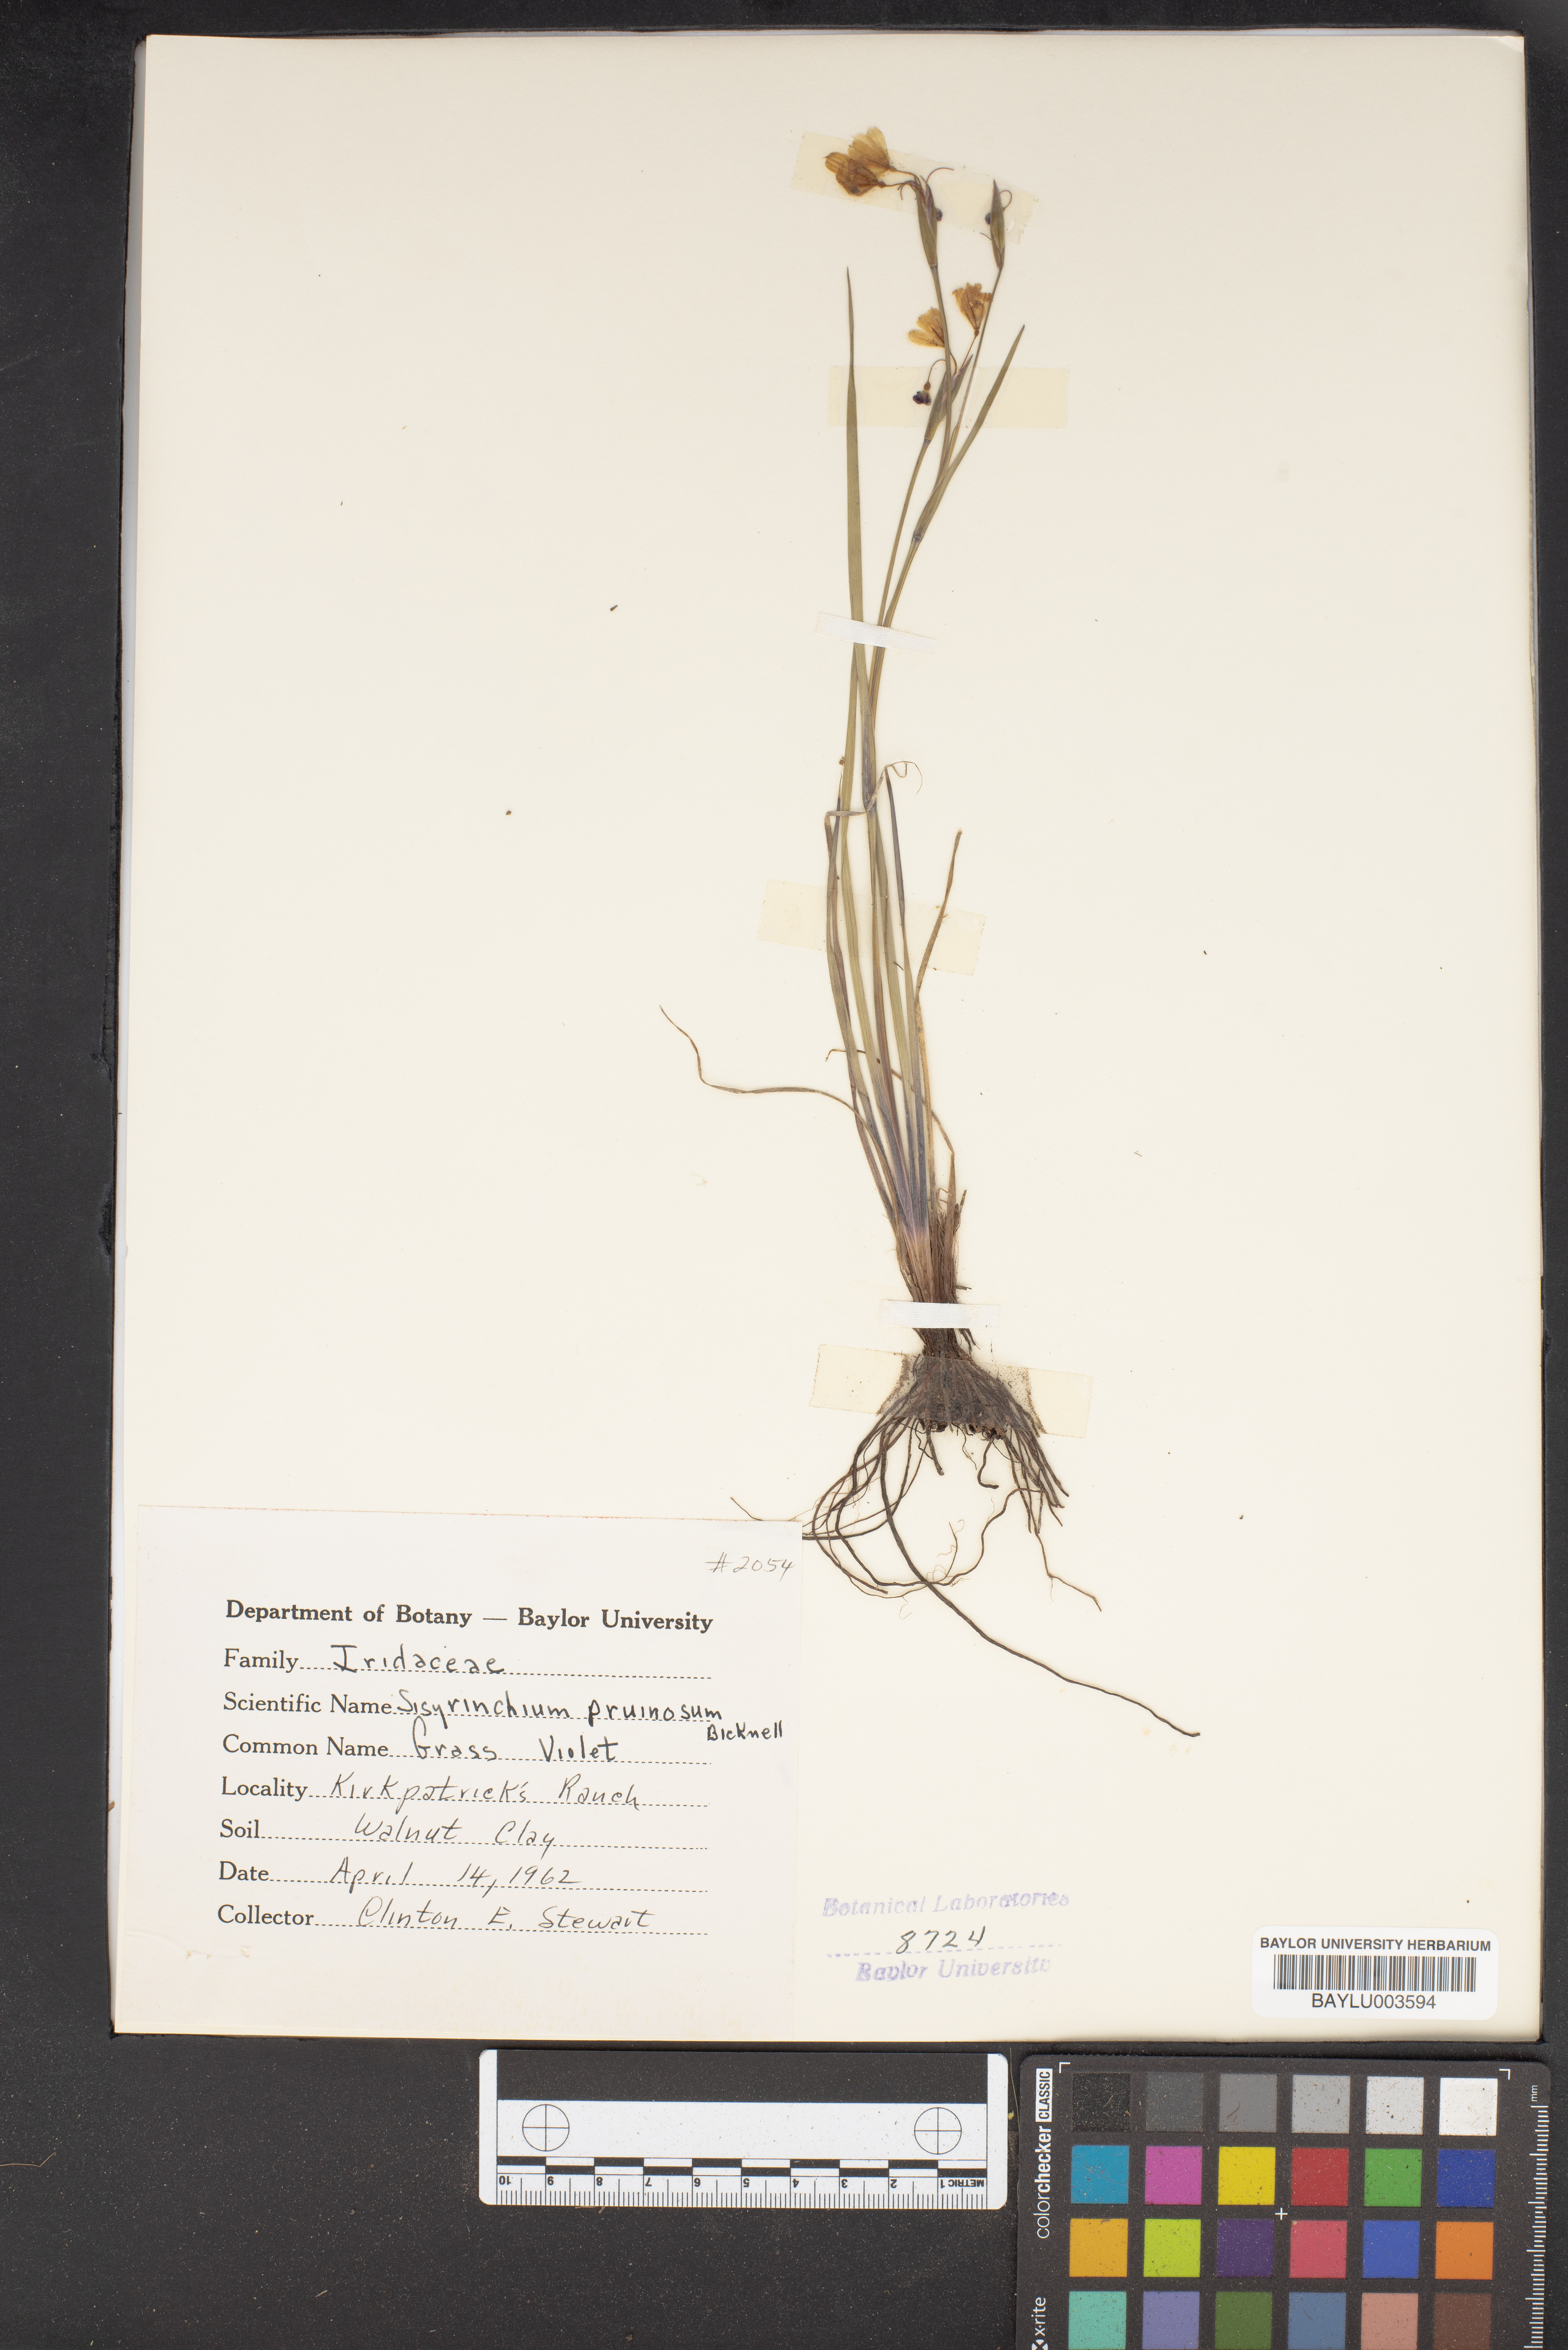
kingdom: Plantae
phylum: Tracheophyta
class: Liliopsida
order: Asparagales
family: Iridaceae
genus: Sisyrinchium
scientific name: Sisyrinchium pruinosum
